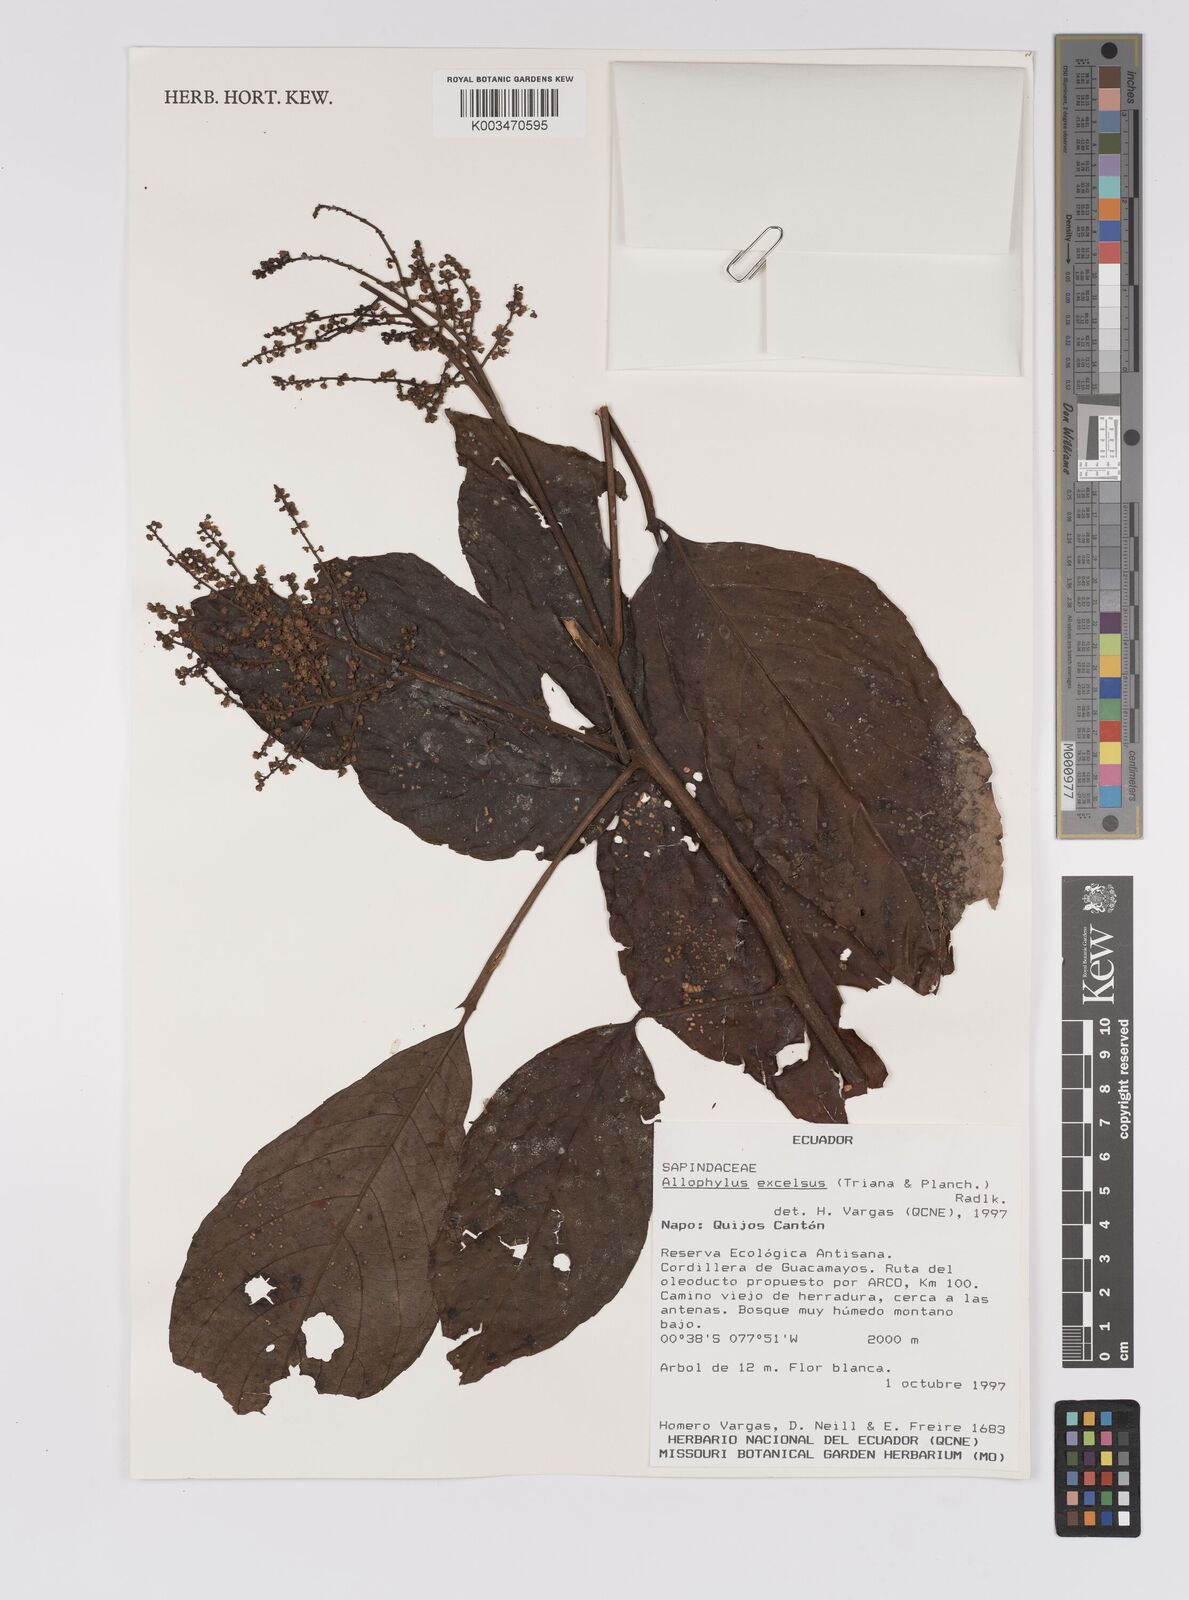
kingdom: Plantae
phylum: Tracheophyta
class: Magnoliopsida
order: Sapindales
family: Sapindaceae
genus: Allophylus
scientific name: Allophylus excelsus
